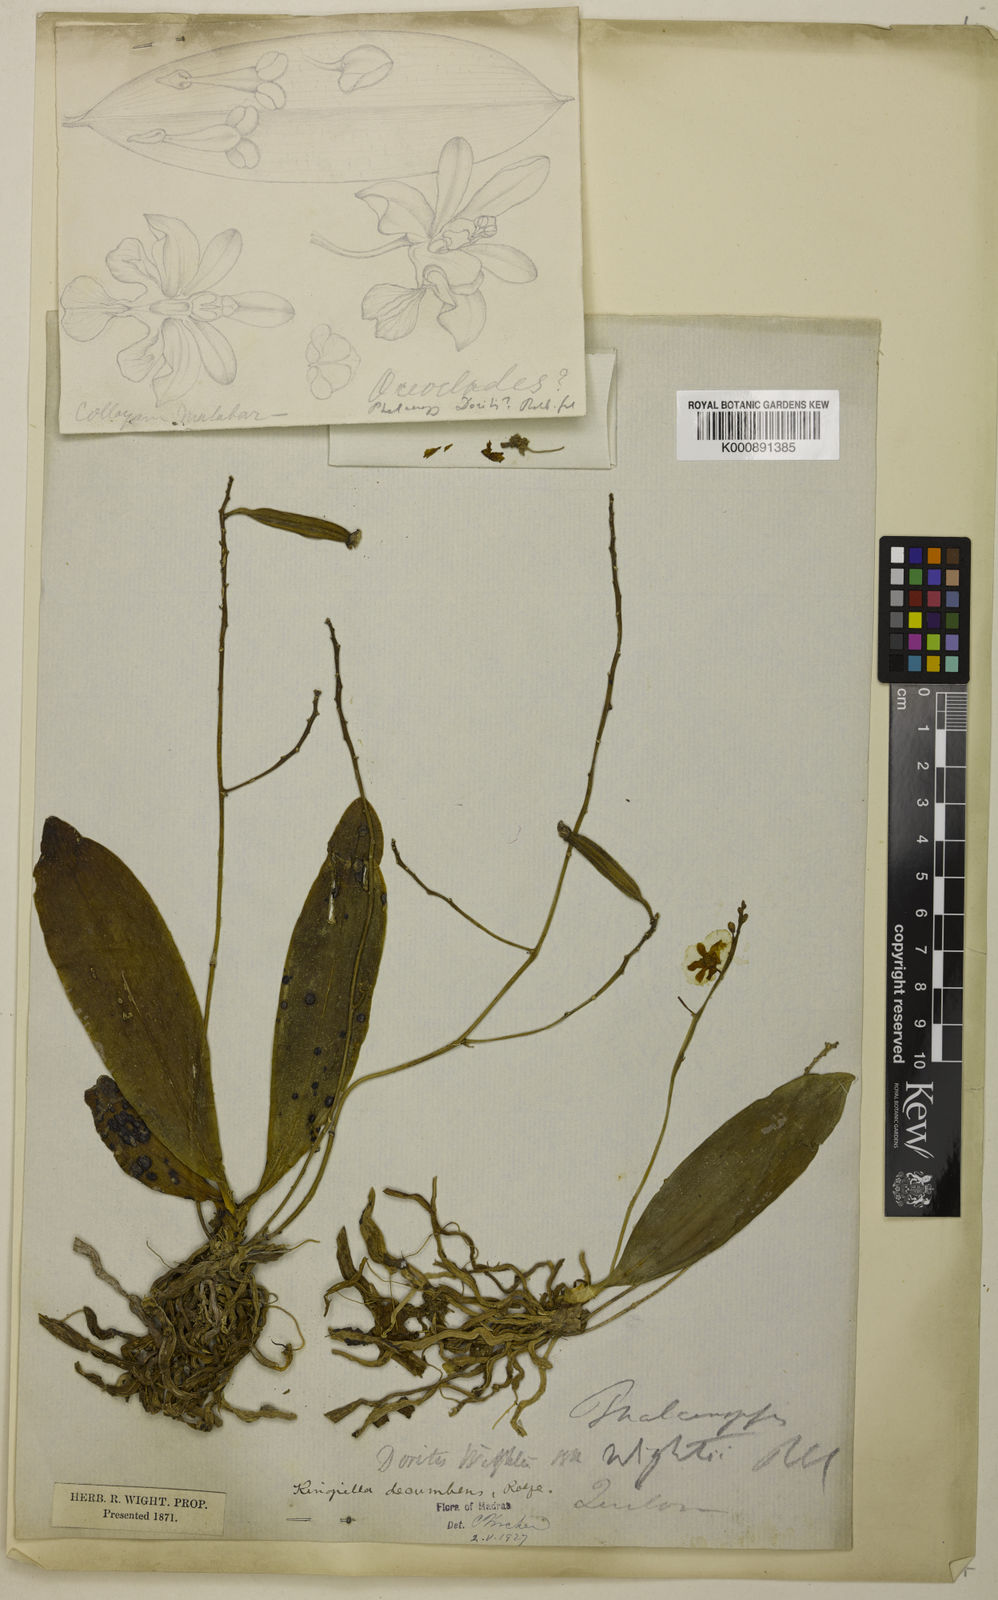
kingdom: Plantae
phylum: Tracheophyta
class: Liliopsida
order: Asparagales
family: Orchidaceae
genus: Phalaenopsis
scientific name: Phalaenopsis parishii
